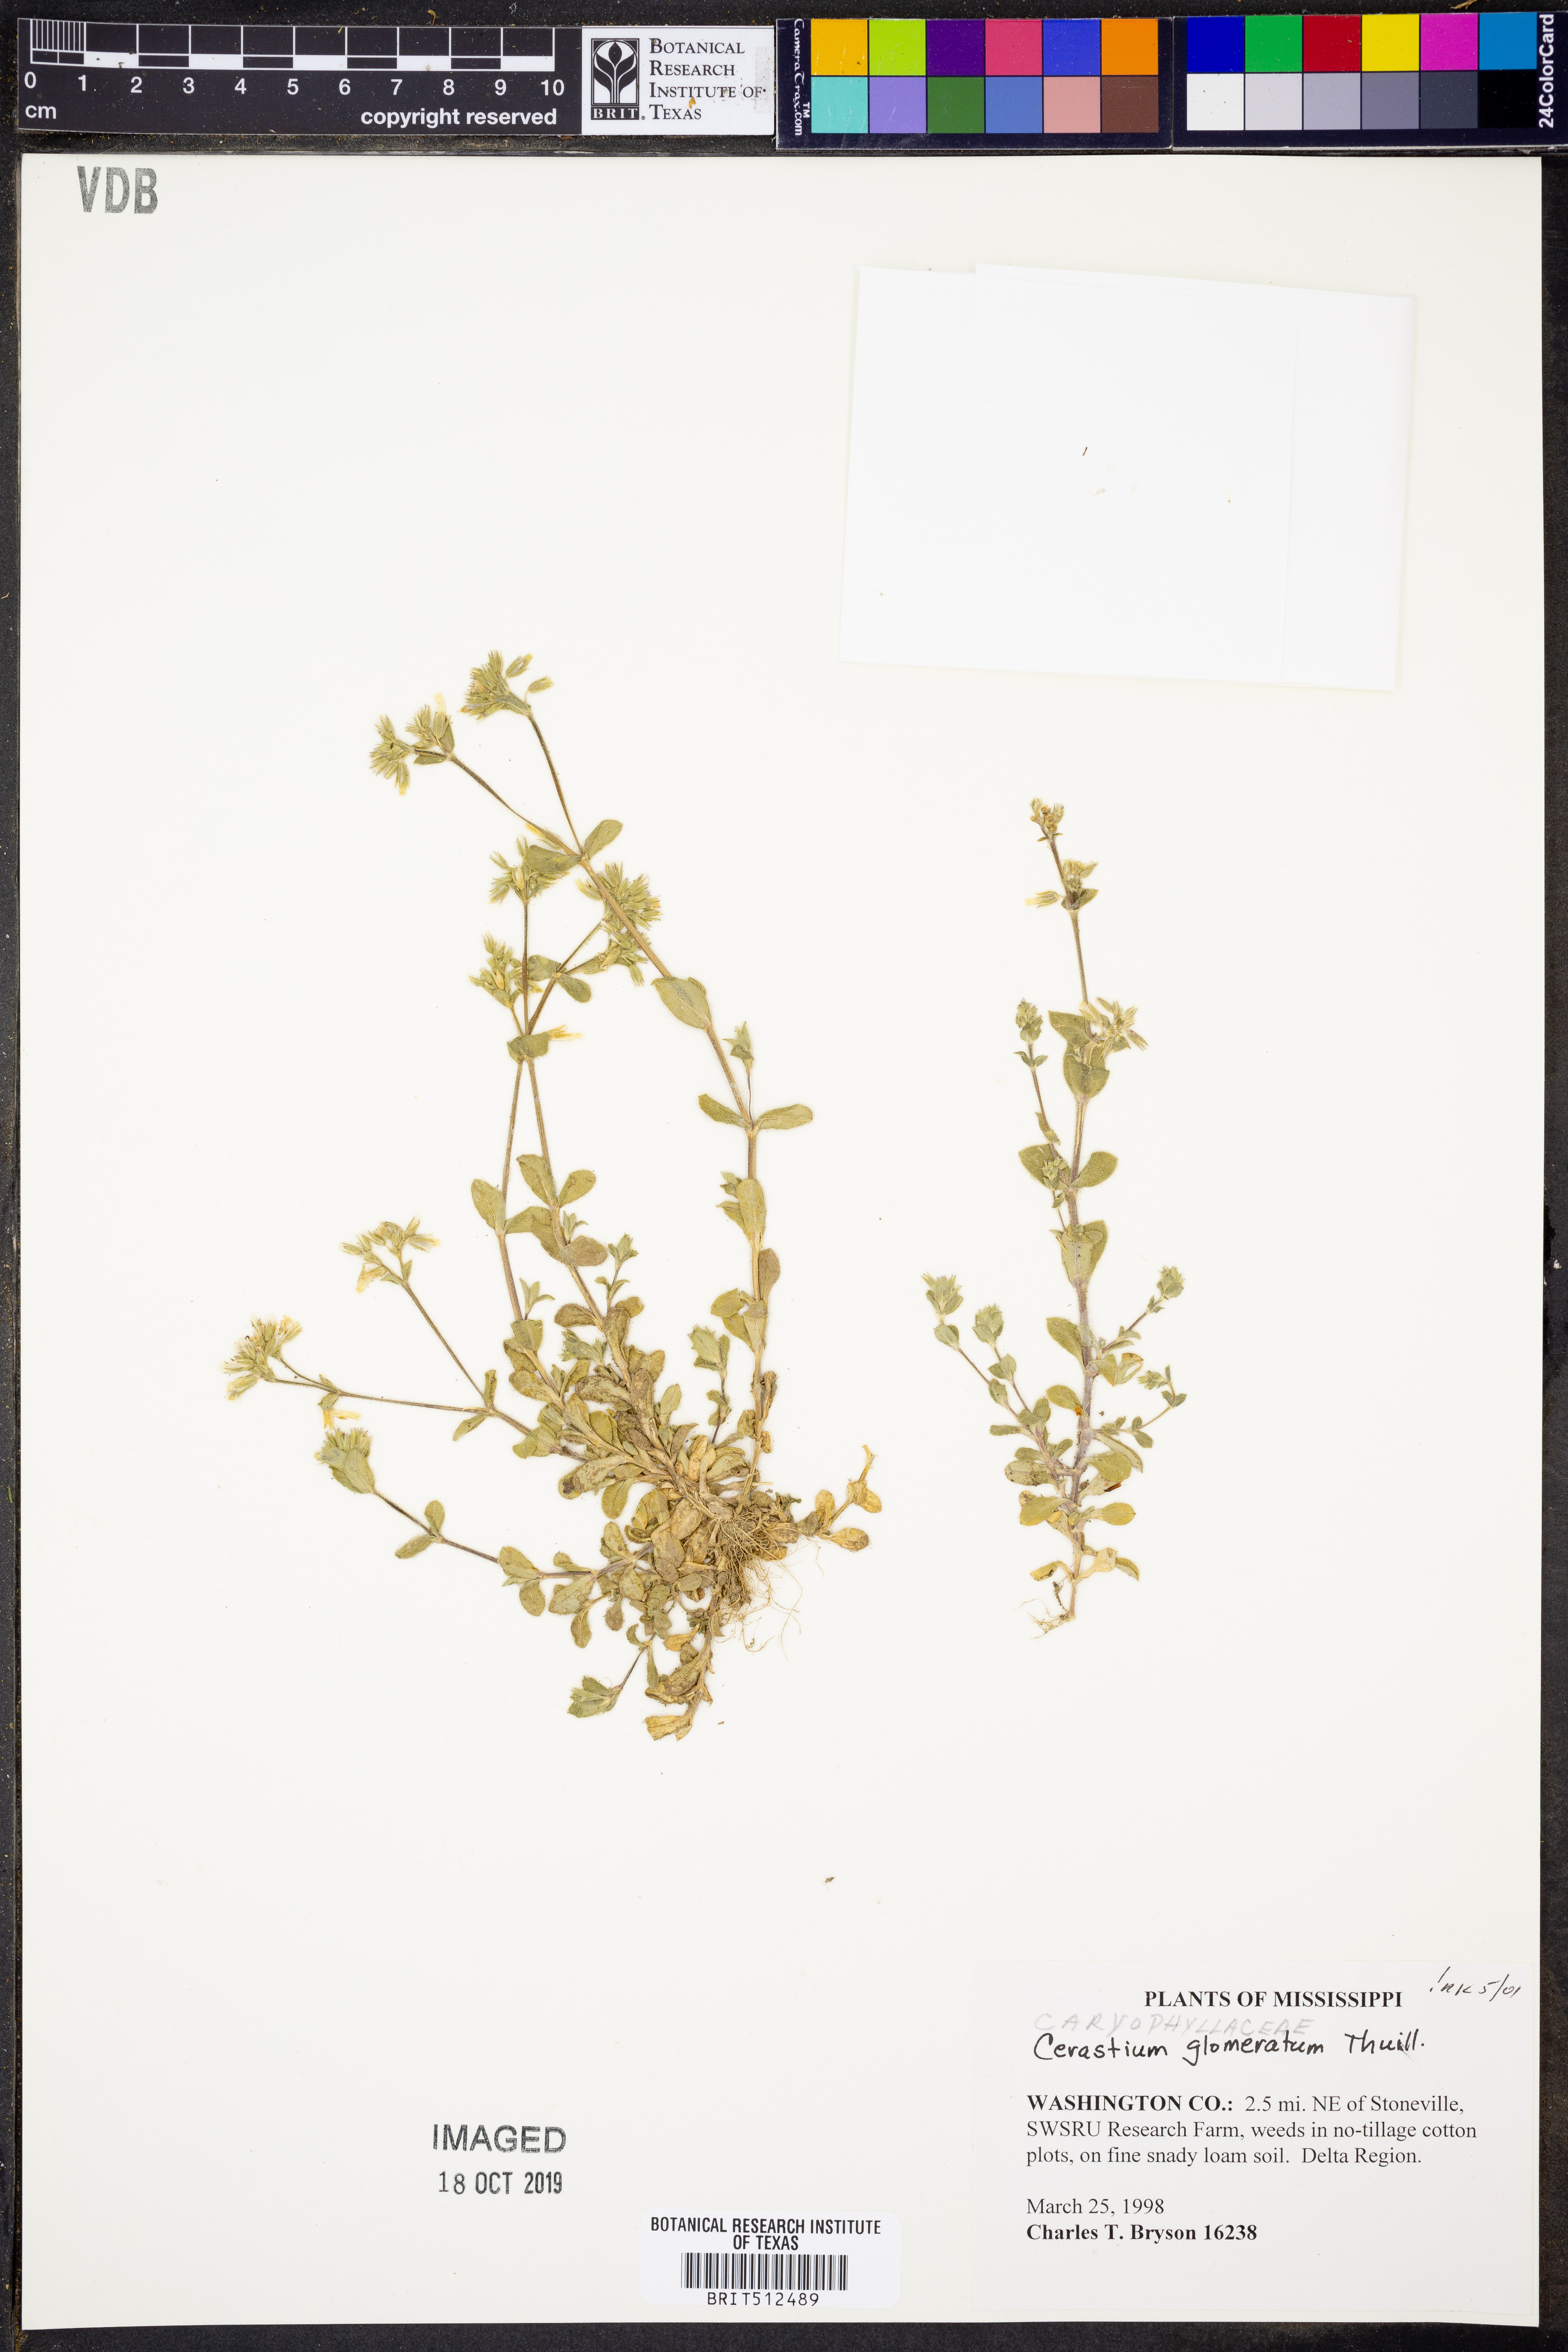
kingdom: Plantae
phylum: Tracheophyta
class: Magnoliopsida
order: Caryophyllales
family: Caryophyllaceae
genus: Cerastium
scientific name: Cerastium glomeratum
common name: Sticky chickweed
